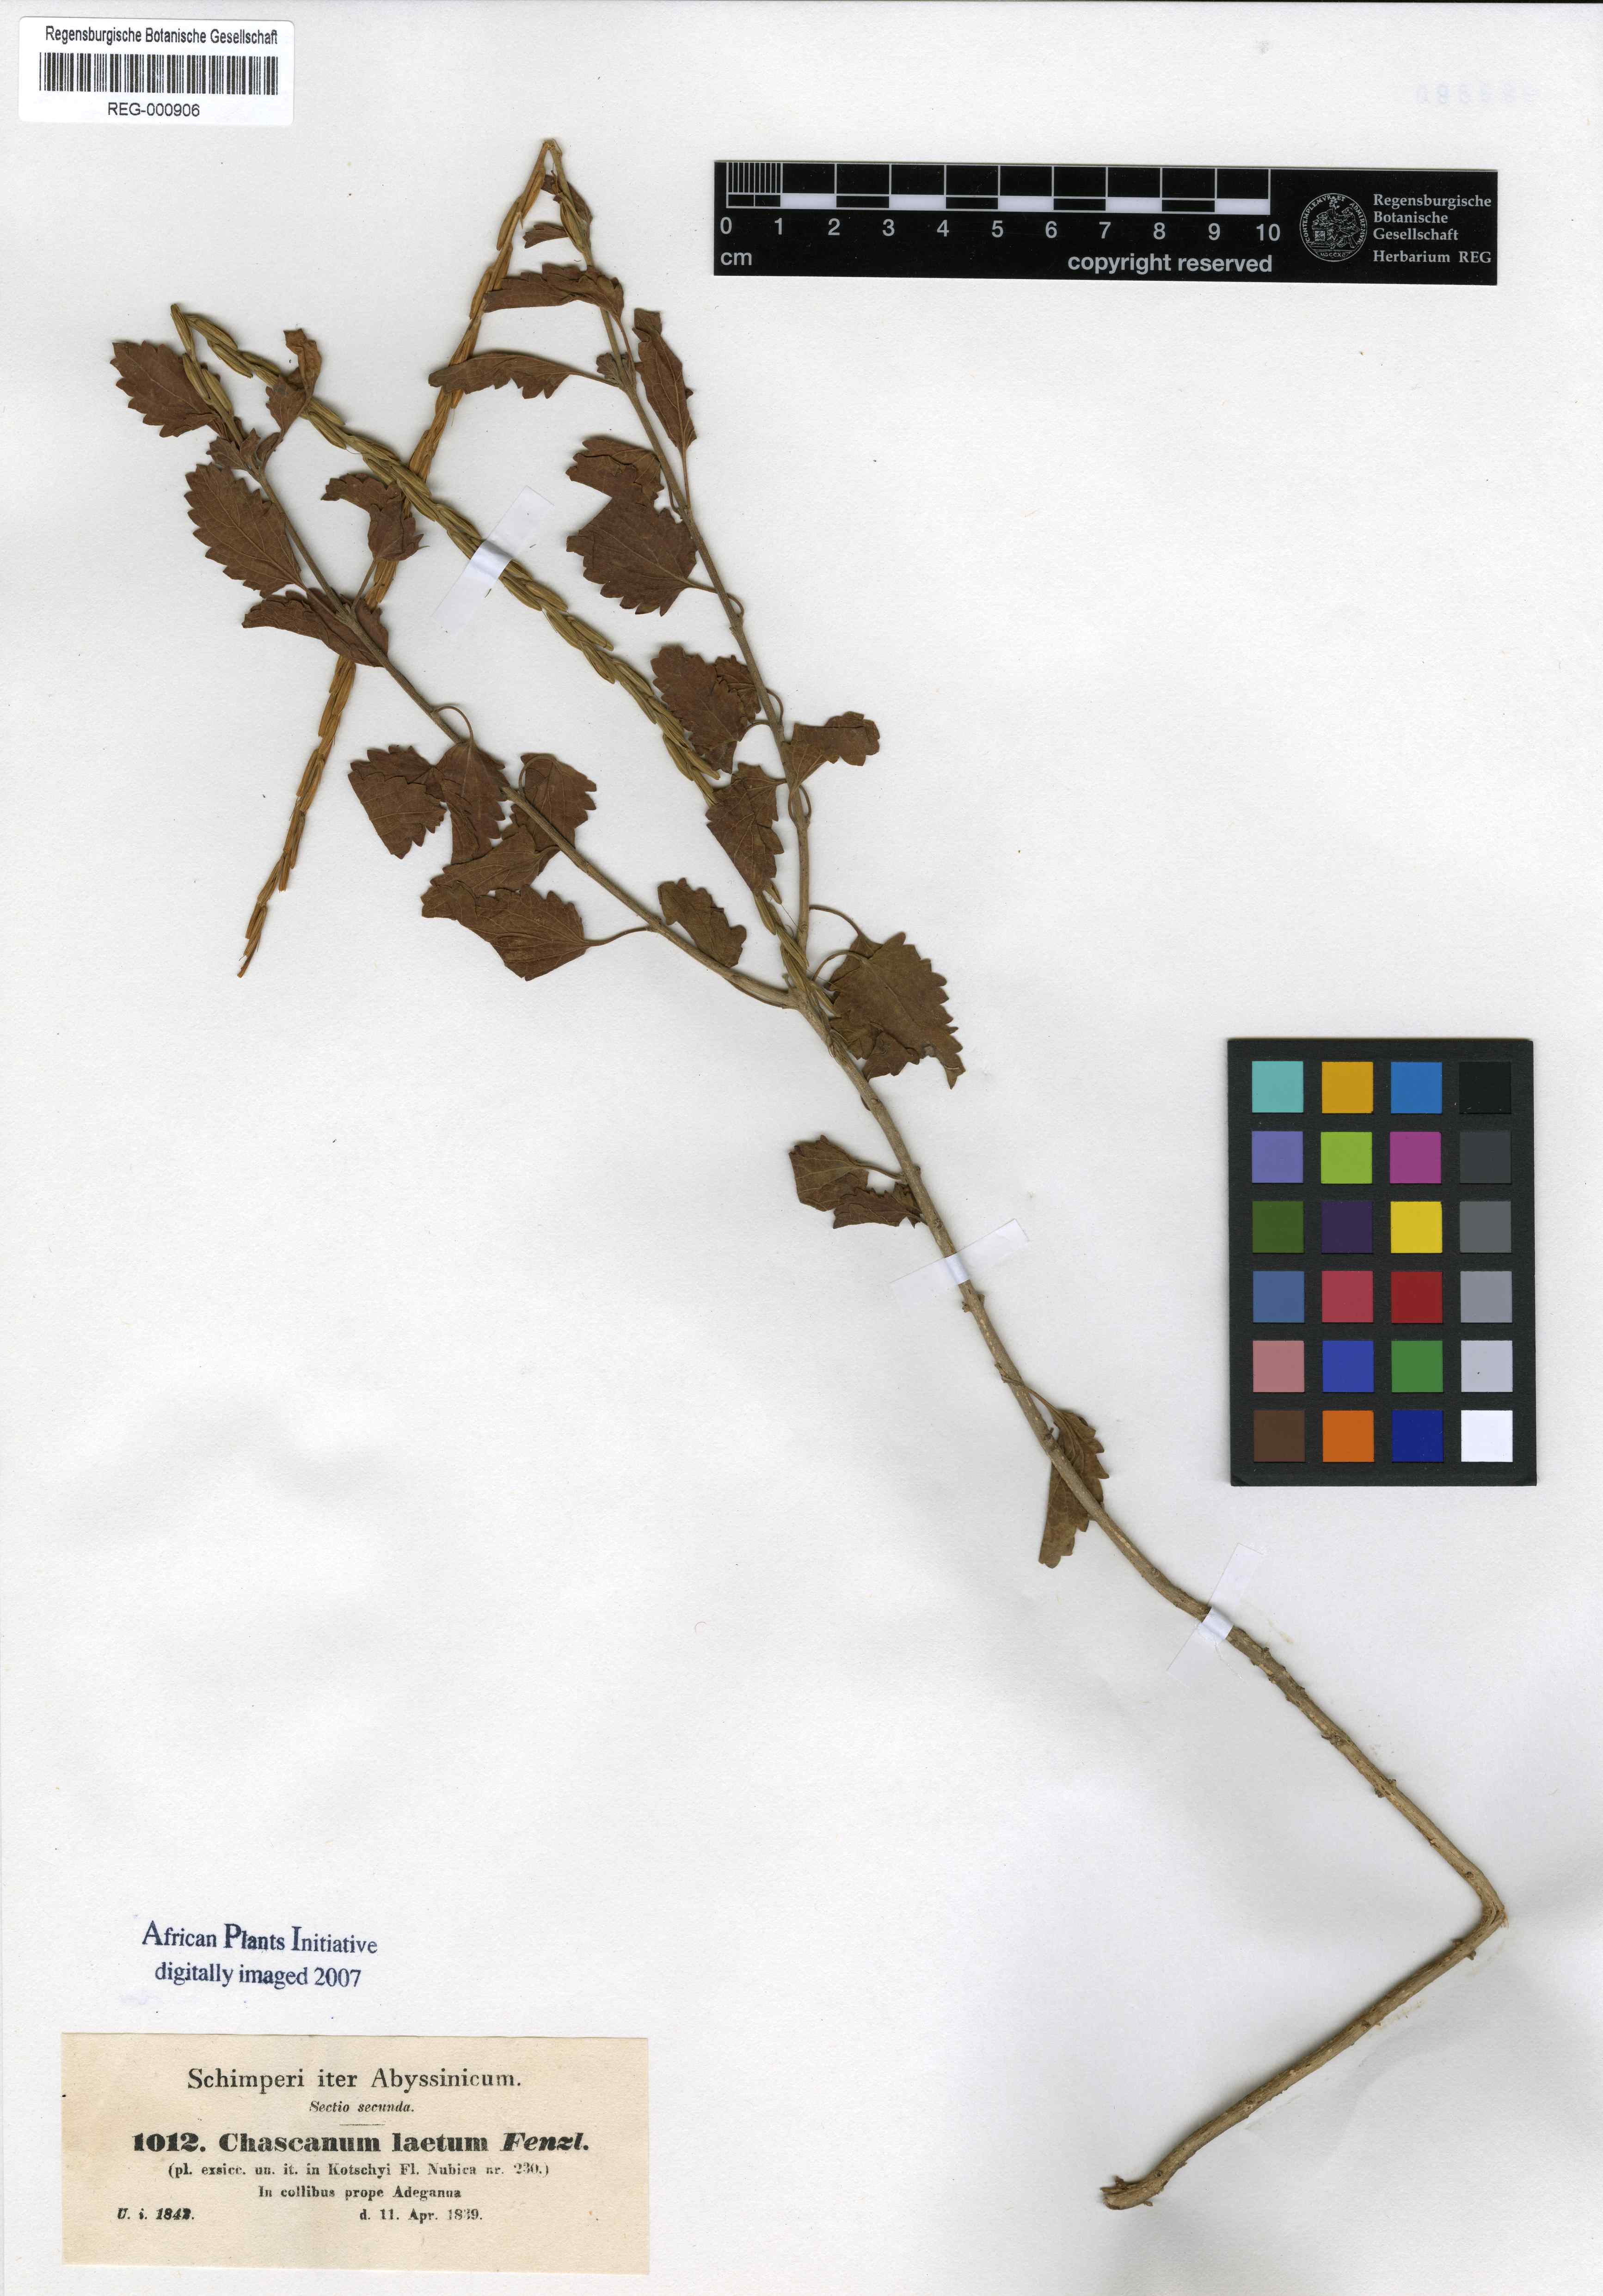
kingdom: Plantae
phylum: Tracheophyta
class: Magnoliopsida
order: Lamiales
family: Verbenaceae
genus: Chascanum
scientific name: Chascanum laetum
